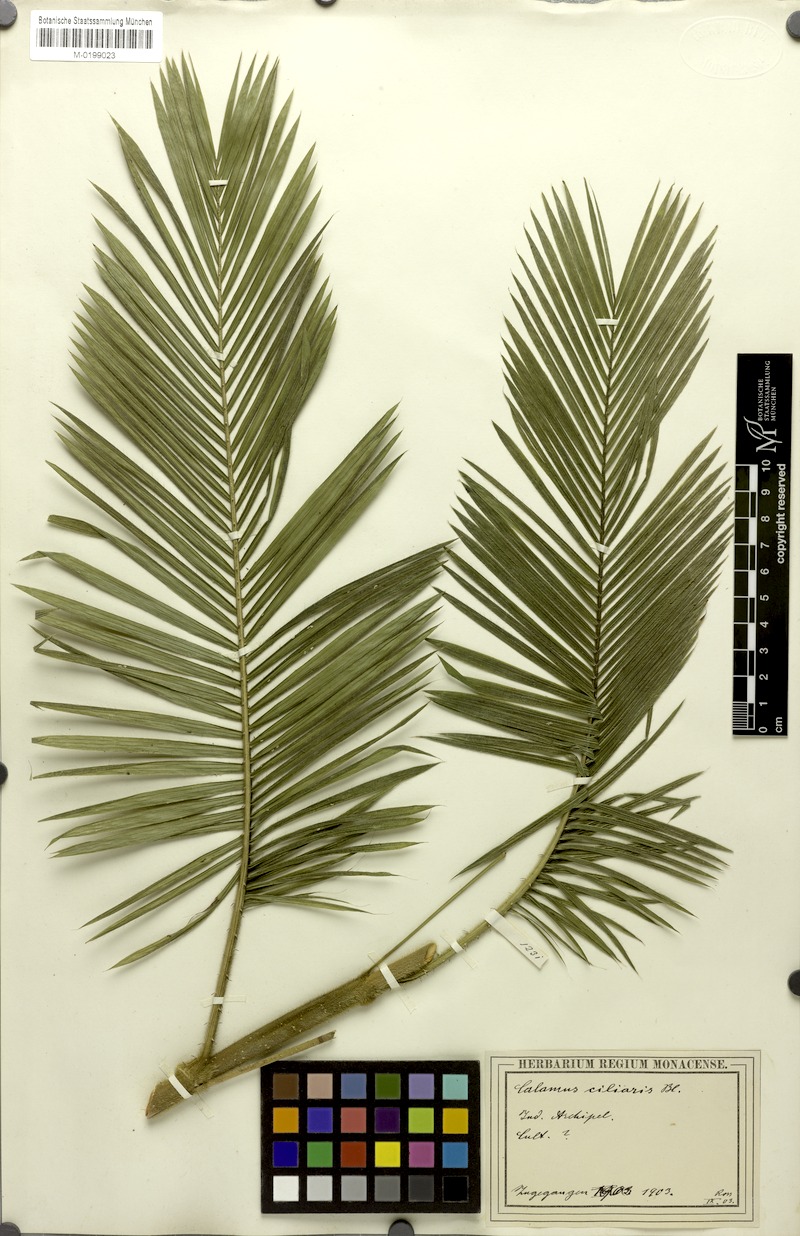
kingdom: Plantae
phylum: Tracheophyta
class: Liliopsida
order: Arecales
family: Arecaceae
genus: Calamus
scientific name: Calamus ciliaris
